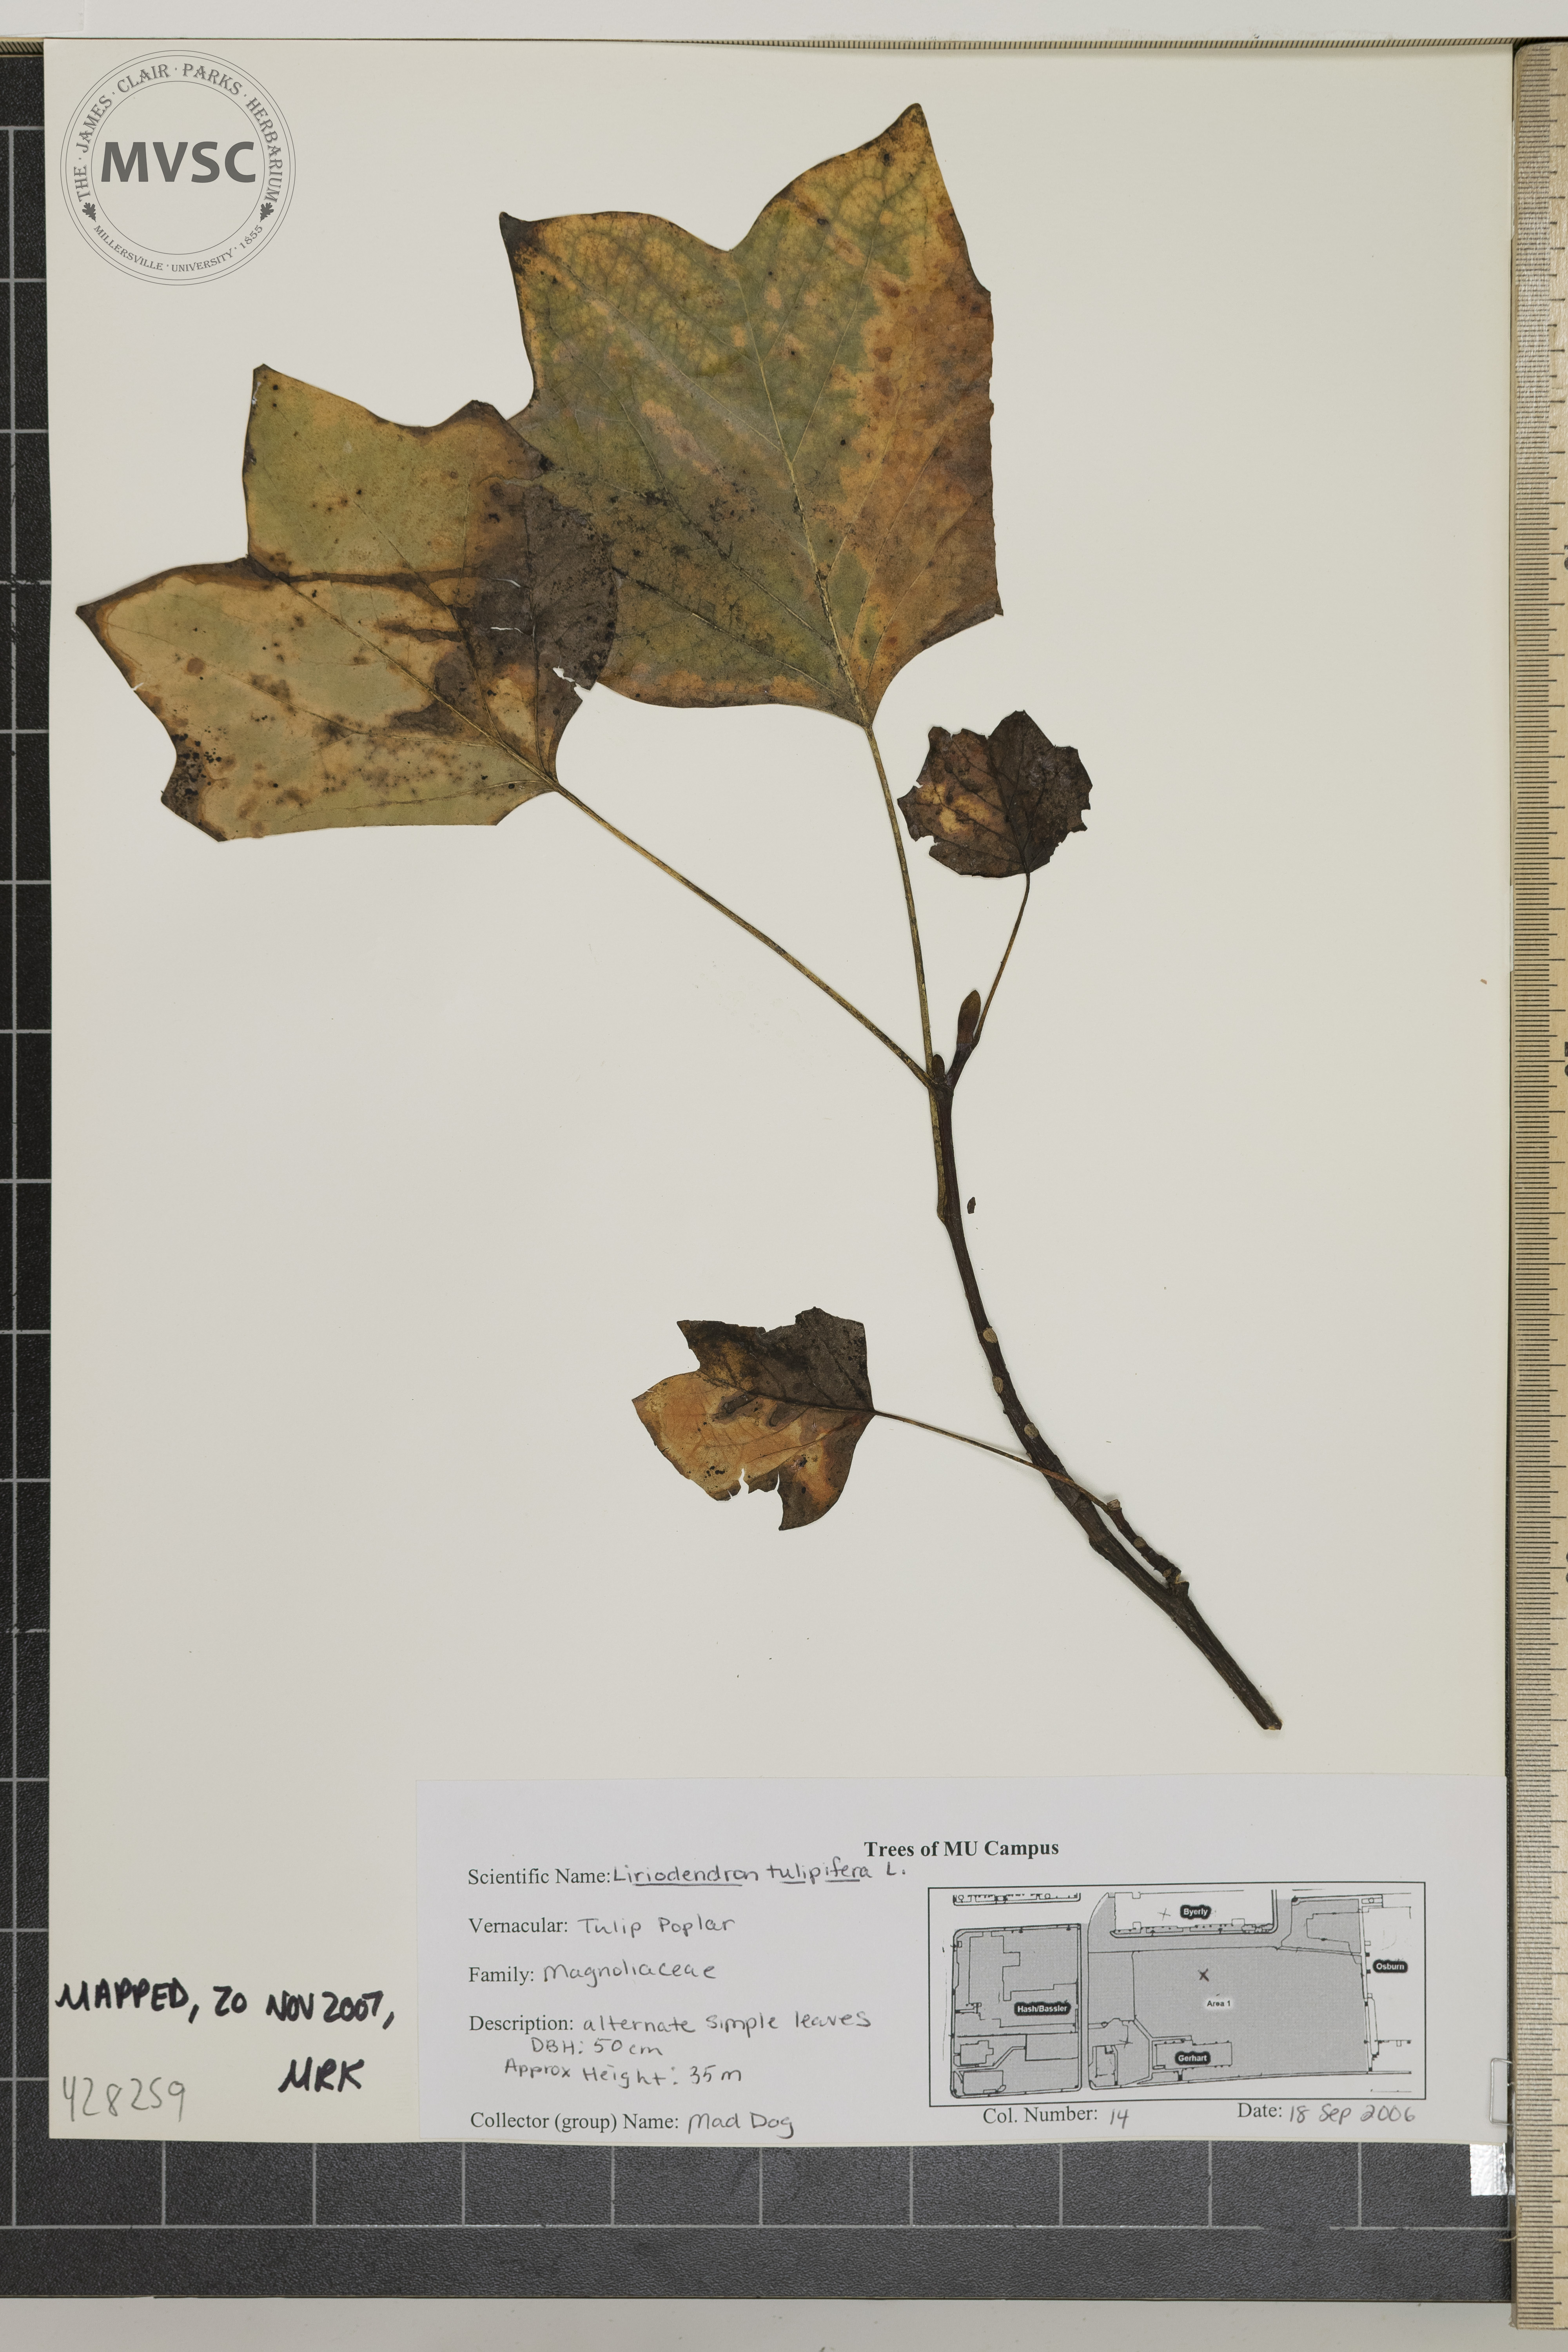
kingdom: Plantae
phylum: Tracheophyta
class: Magnoliopsida
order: Magnoliales
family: Magnoliaceae
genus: Liriodendron
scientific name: Liriodendron tulipifera
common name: Tulip Poplar
